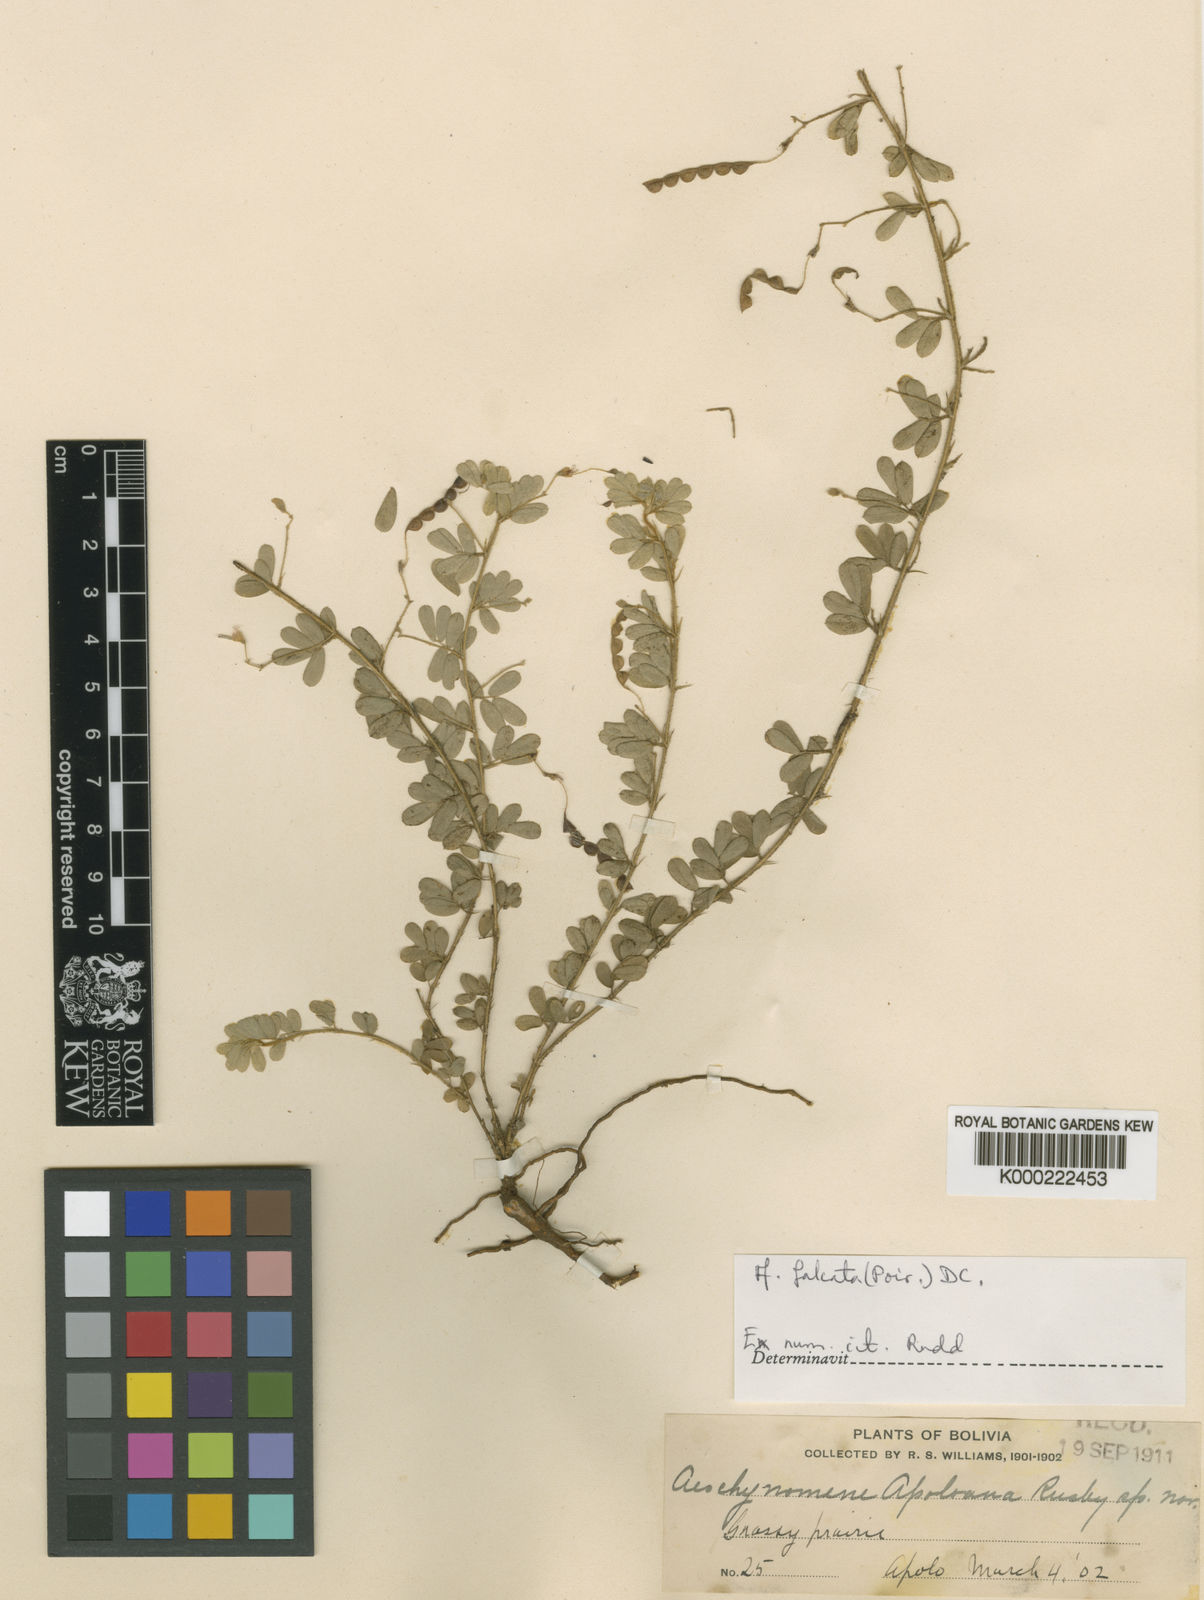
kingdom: Plantae
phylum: Tracheophyta
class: Magnoliopsida
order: Fabales
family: Fabaceae
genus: Ctenodon
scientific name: Ctenodon falcatus
